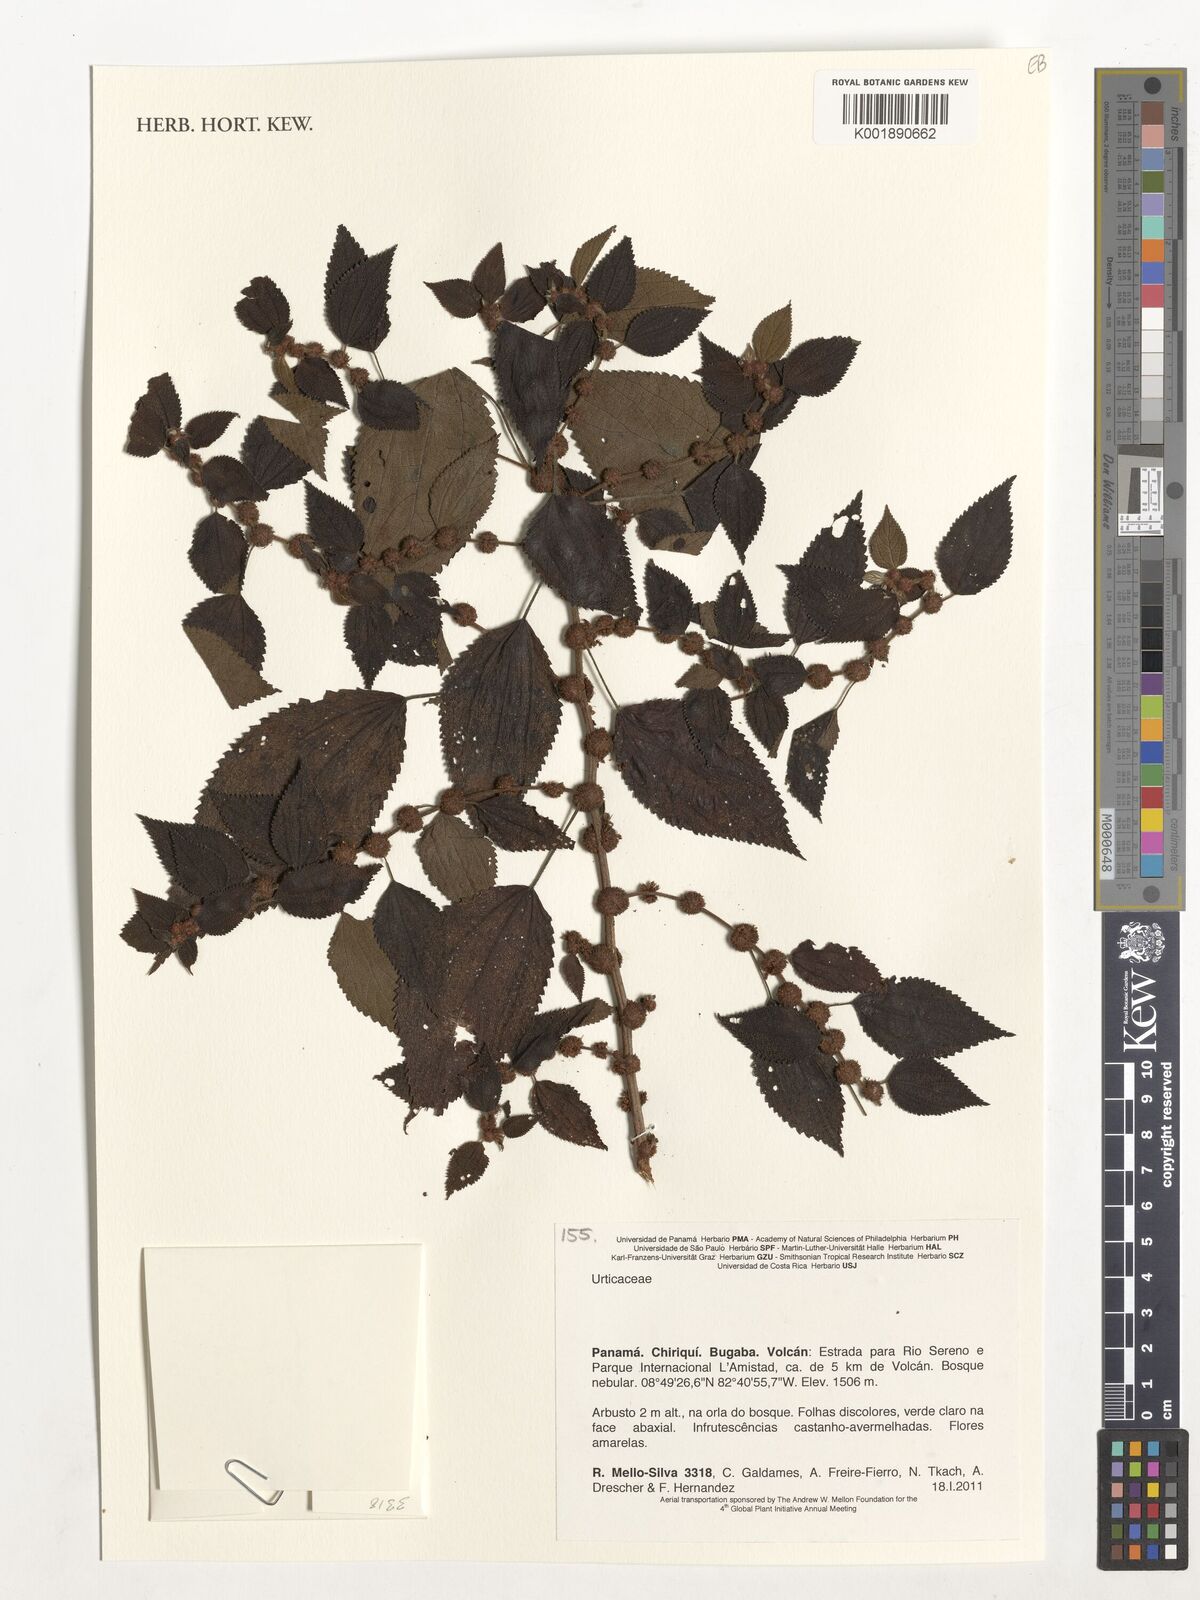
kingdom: Plantae
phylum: Tracheophyta
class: Magnoliopsida
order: Rosales
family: Urticaceae
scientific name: Urticaceae
